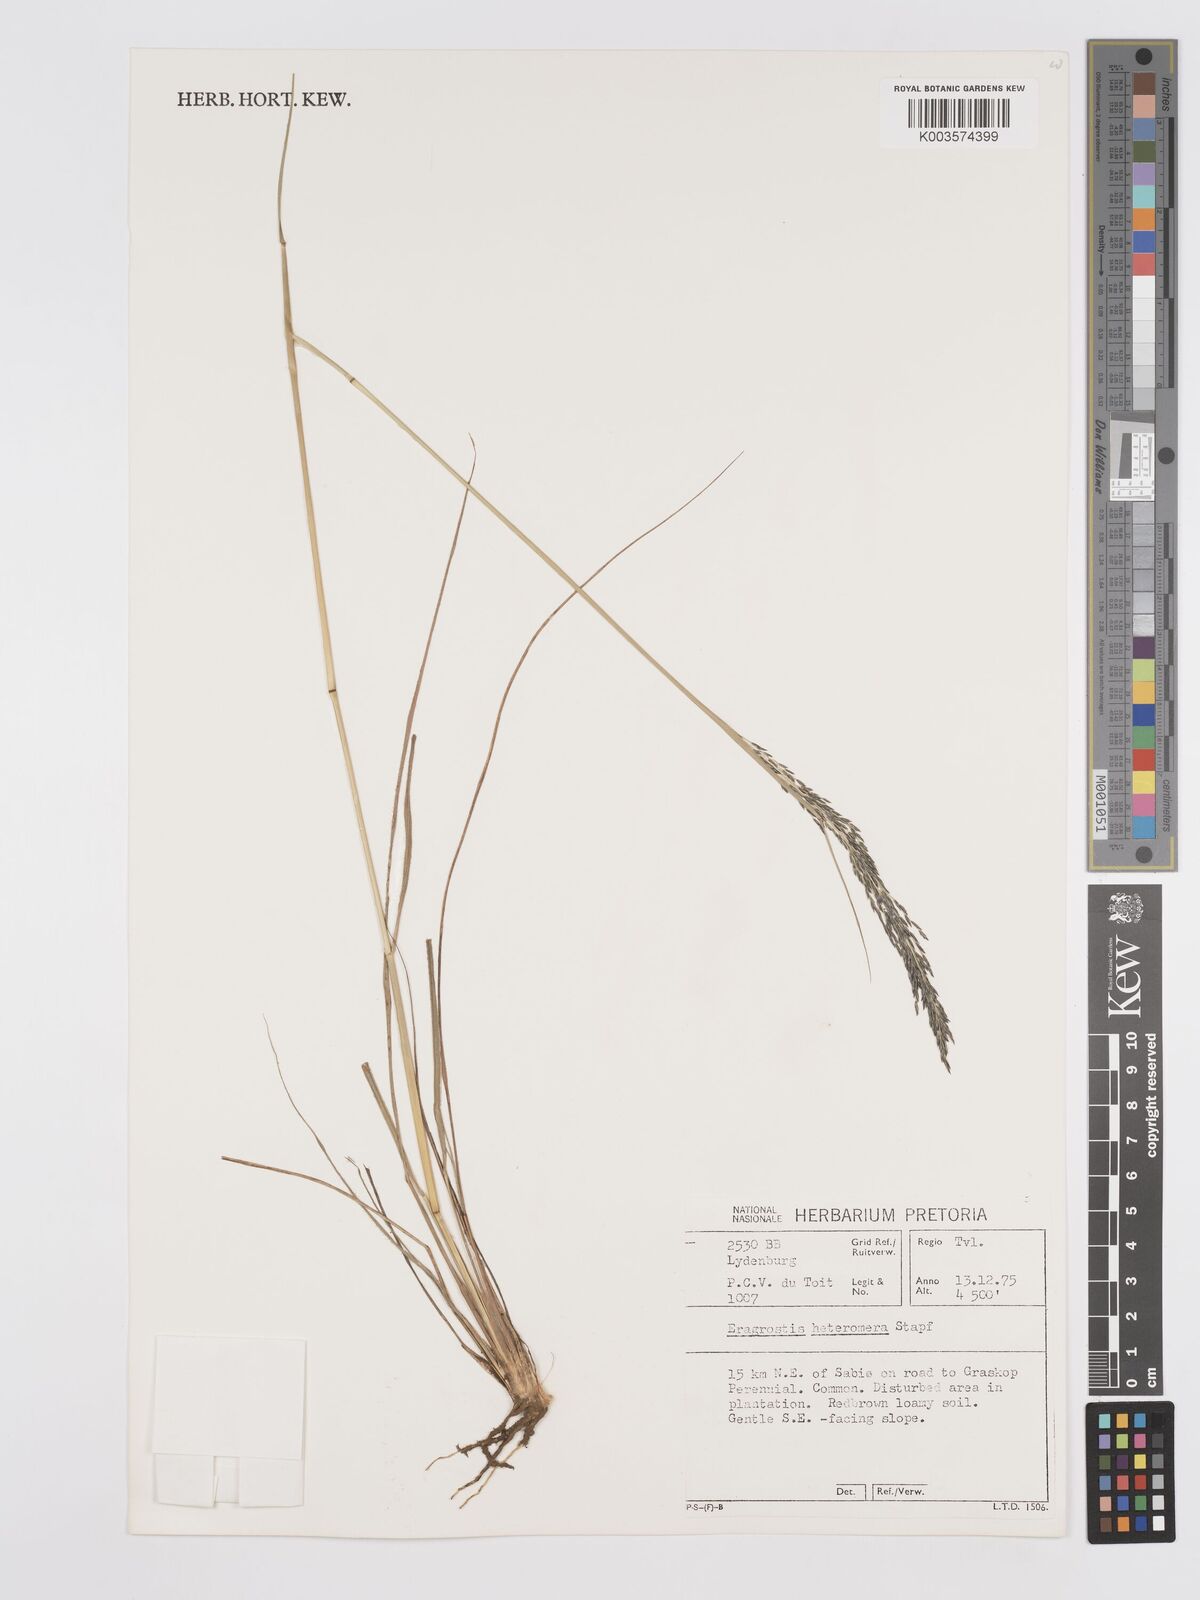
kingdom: Plantae
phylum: Tracheophyta
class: Liliopsida
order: Poales
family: Poaceae
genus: Eragrostis
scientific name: Eragrostis heteromera
